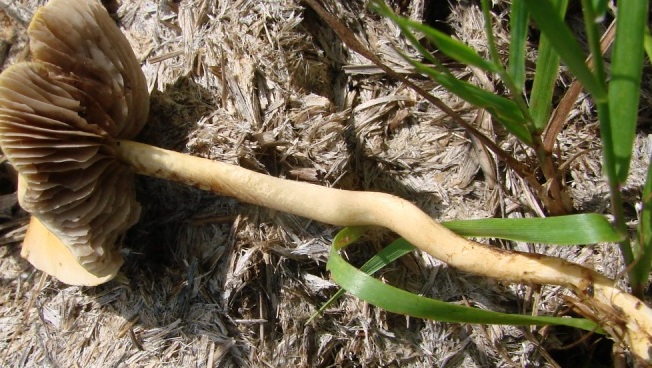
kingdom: Fungi
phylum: Basidiomycota
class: Agaricomycetes
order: Agaricales
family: Strophariaceae
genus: Agrocybe
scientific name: Agrocybe pediades
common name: almindelig agerhat
